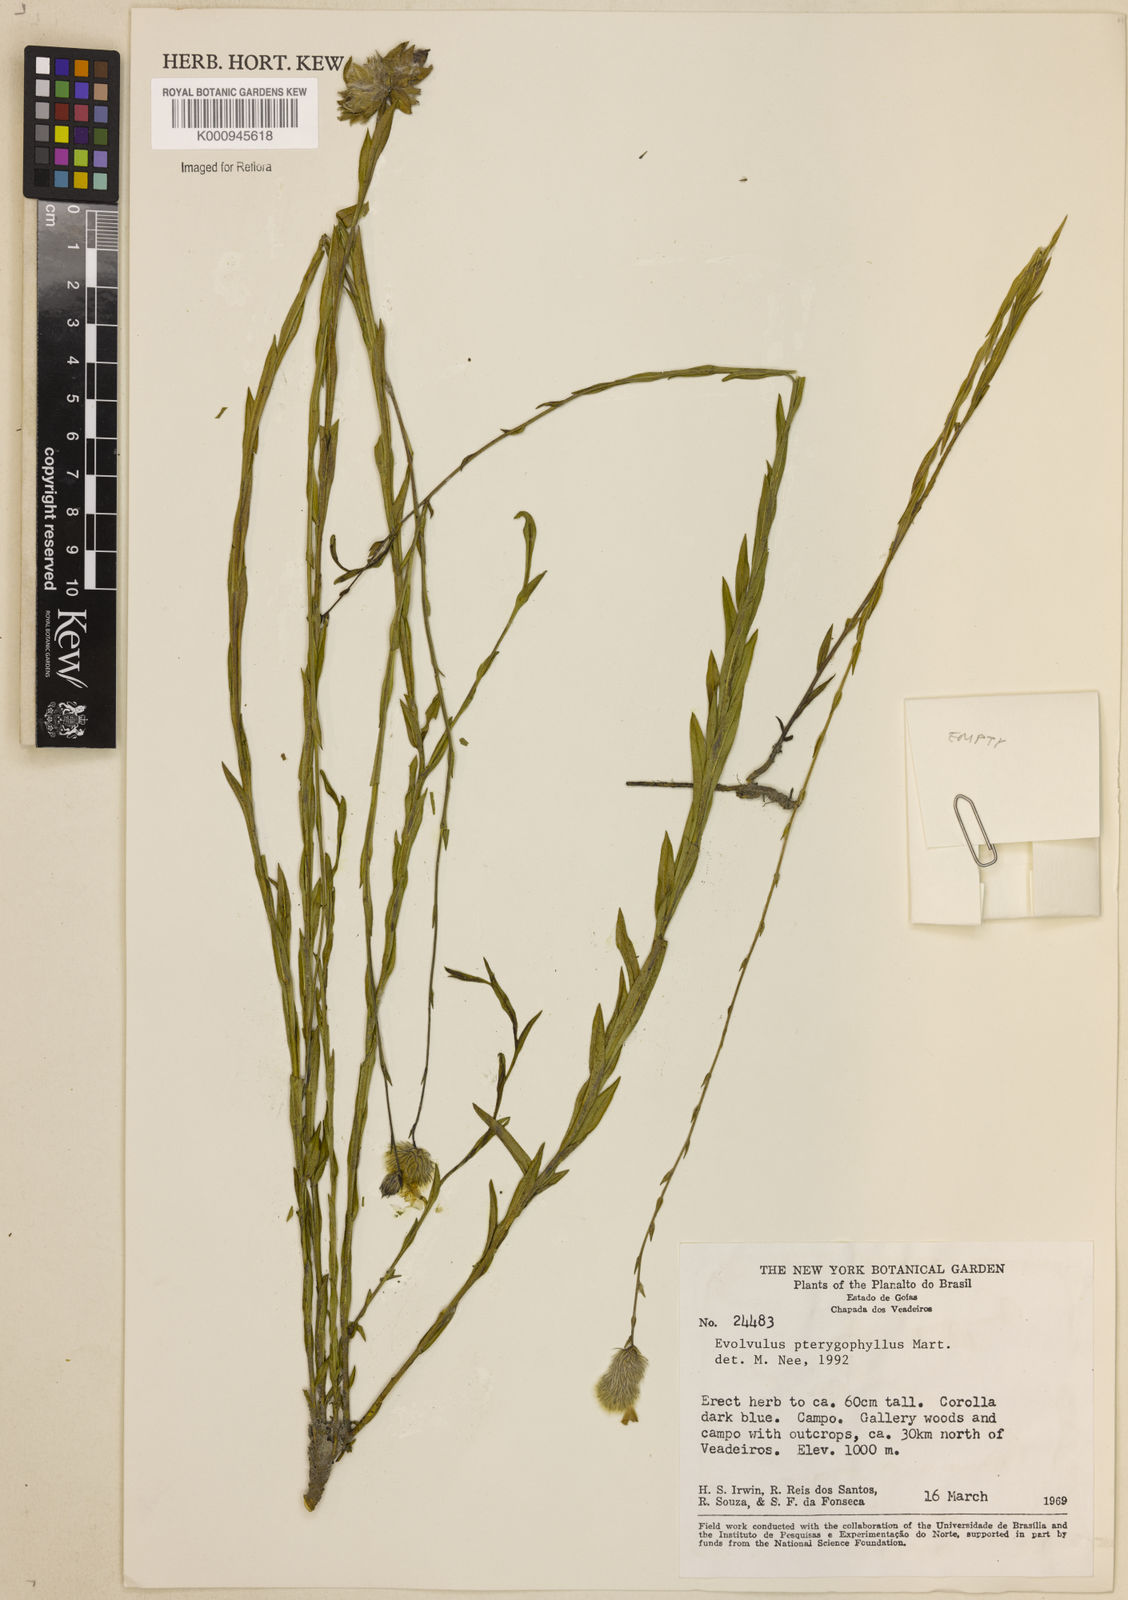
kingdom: Plantae
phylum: Tracheophyta
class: Magnoliopsida
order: Solanales
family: Convolvulaceae
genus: Evolvulus
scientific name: Evolvulus pterygophyllus
